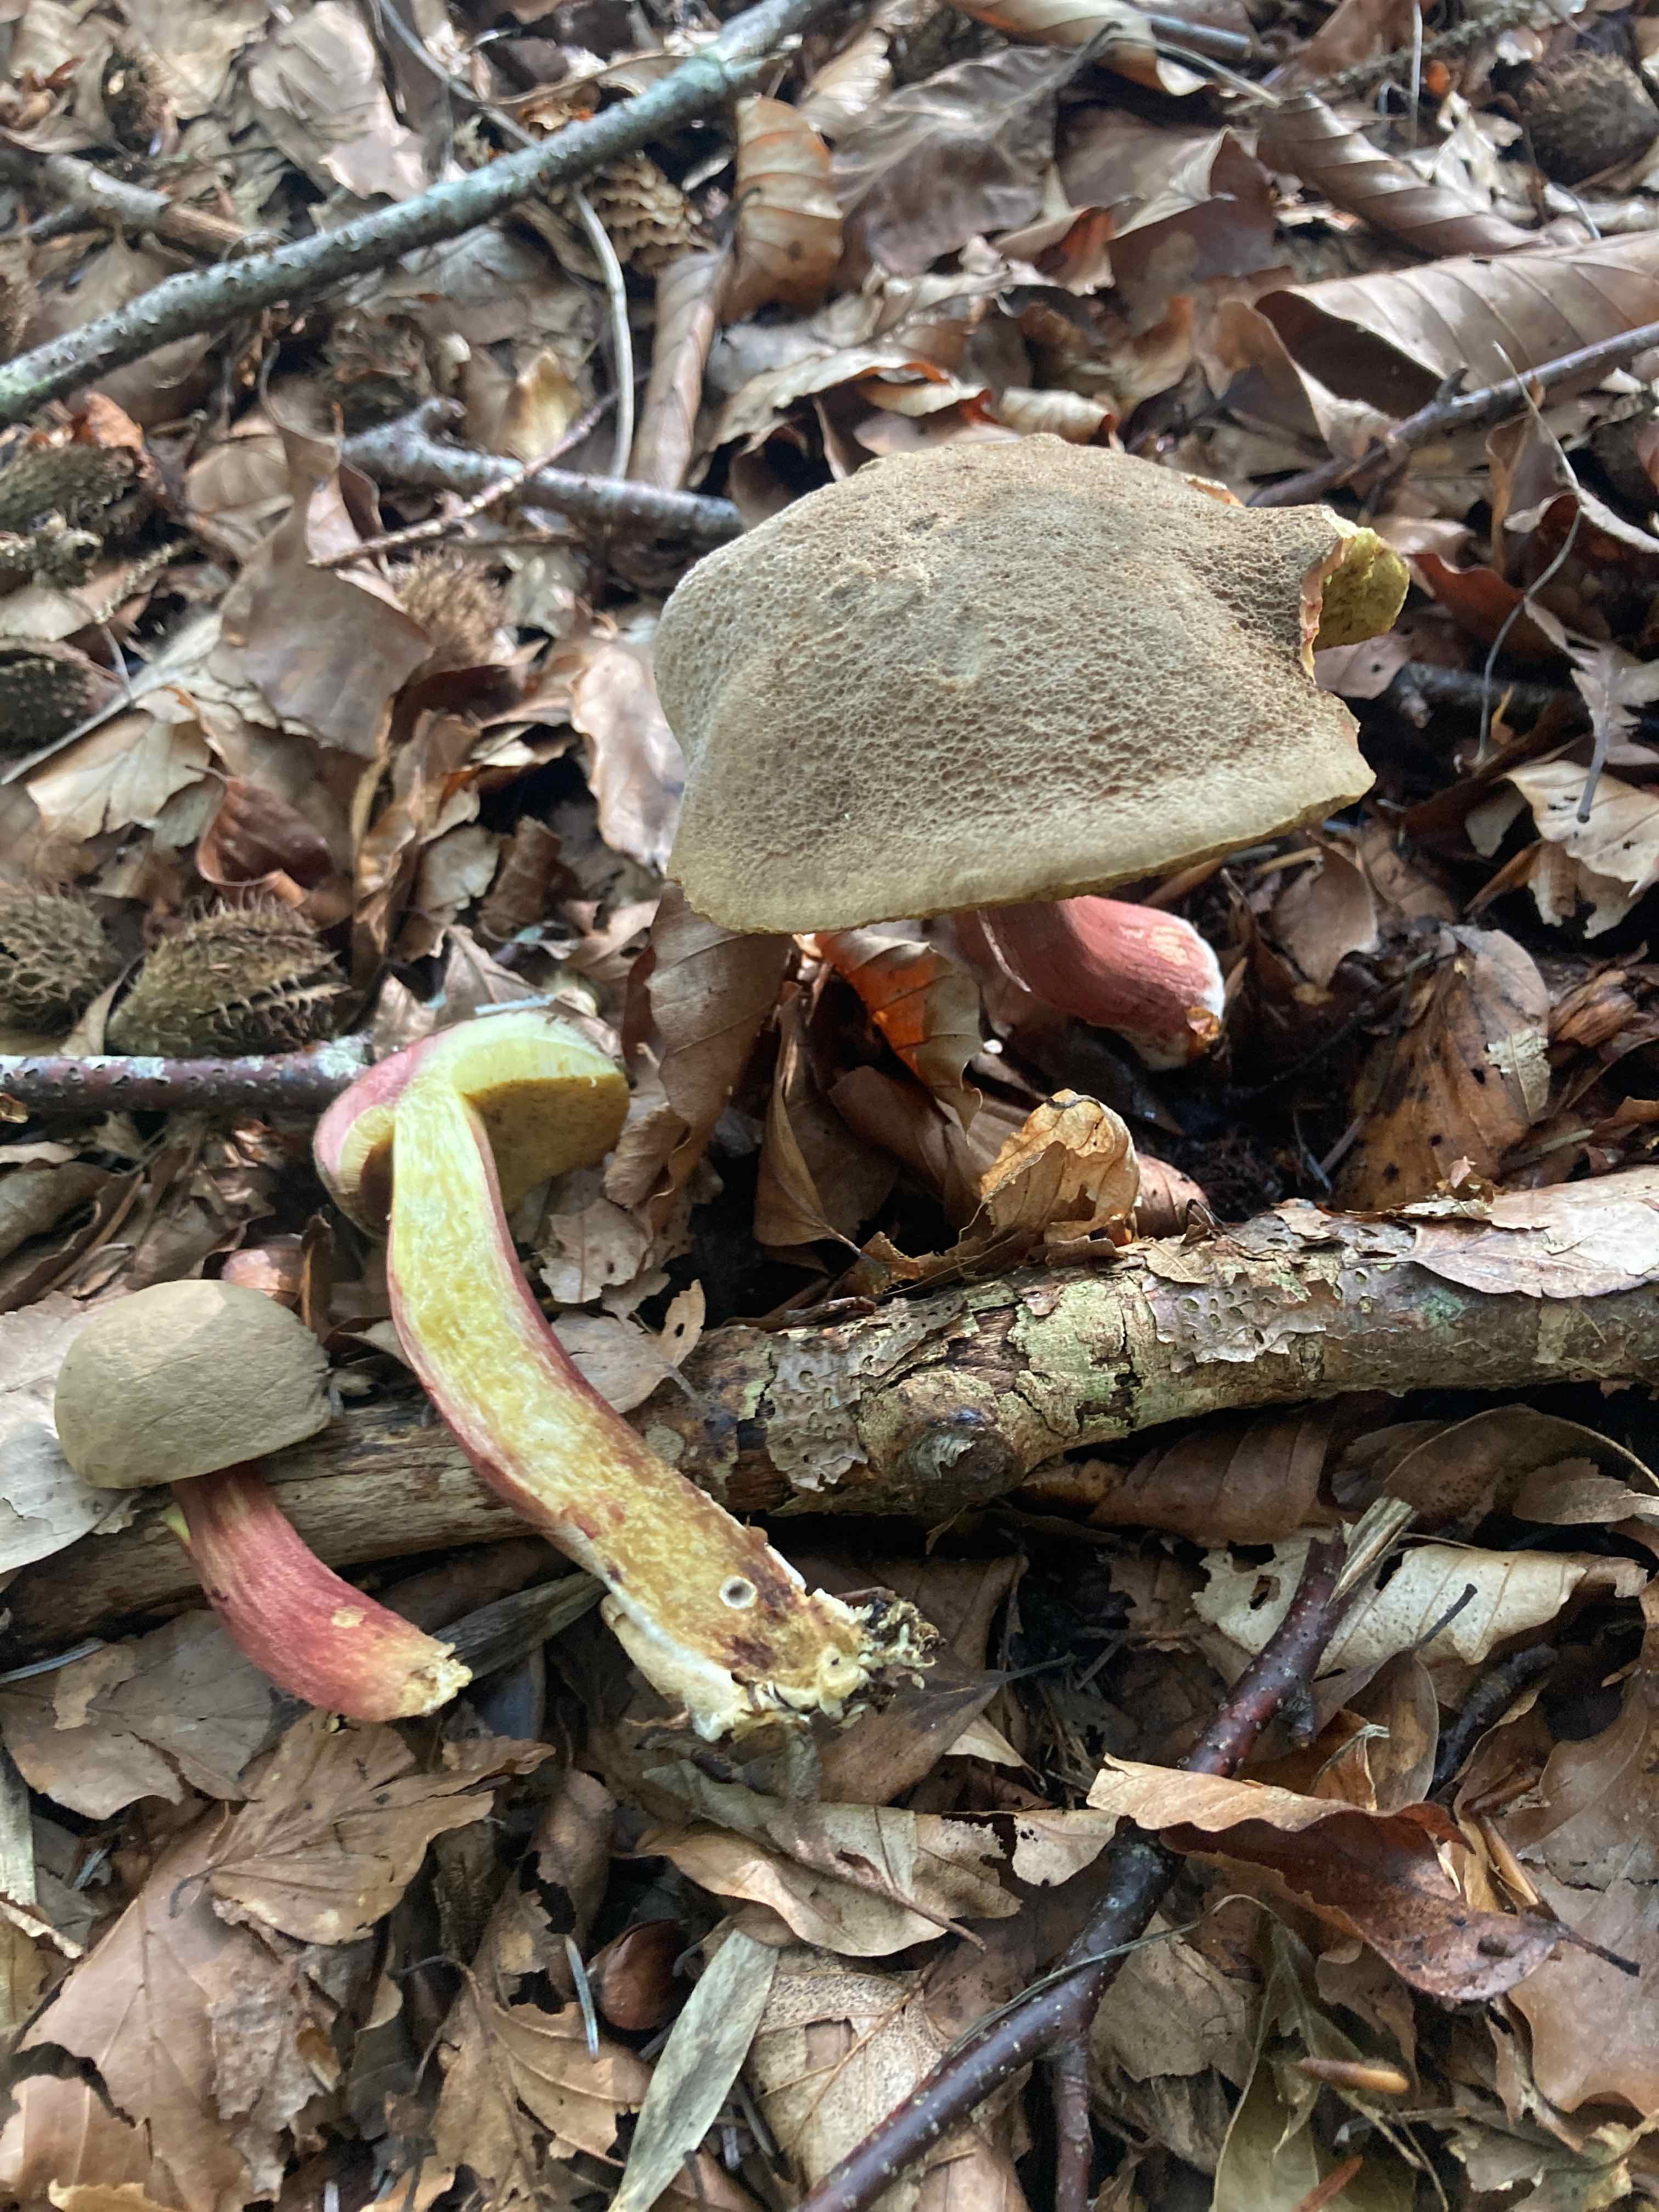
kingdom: Fungi
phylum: Basidiomycota
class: Agaricomycetes
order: Boletales
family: Boletaceae
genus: Xerocomellus
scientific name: Xerocomellus cisalpinus
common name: finsprukken rørhat
